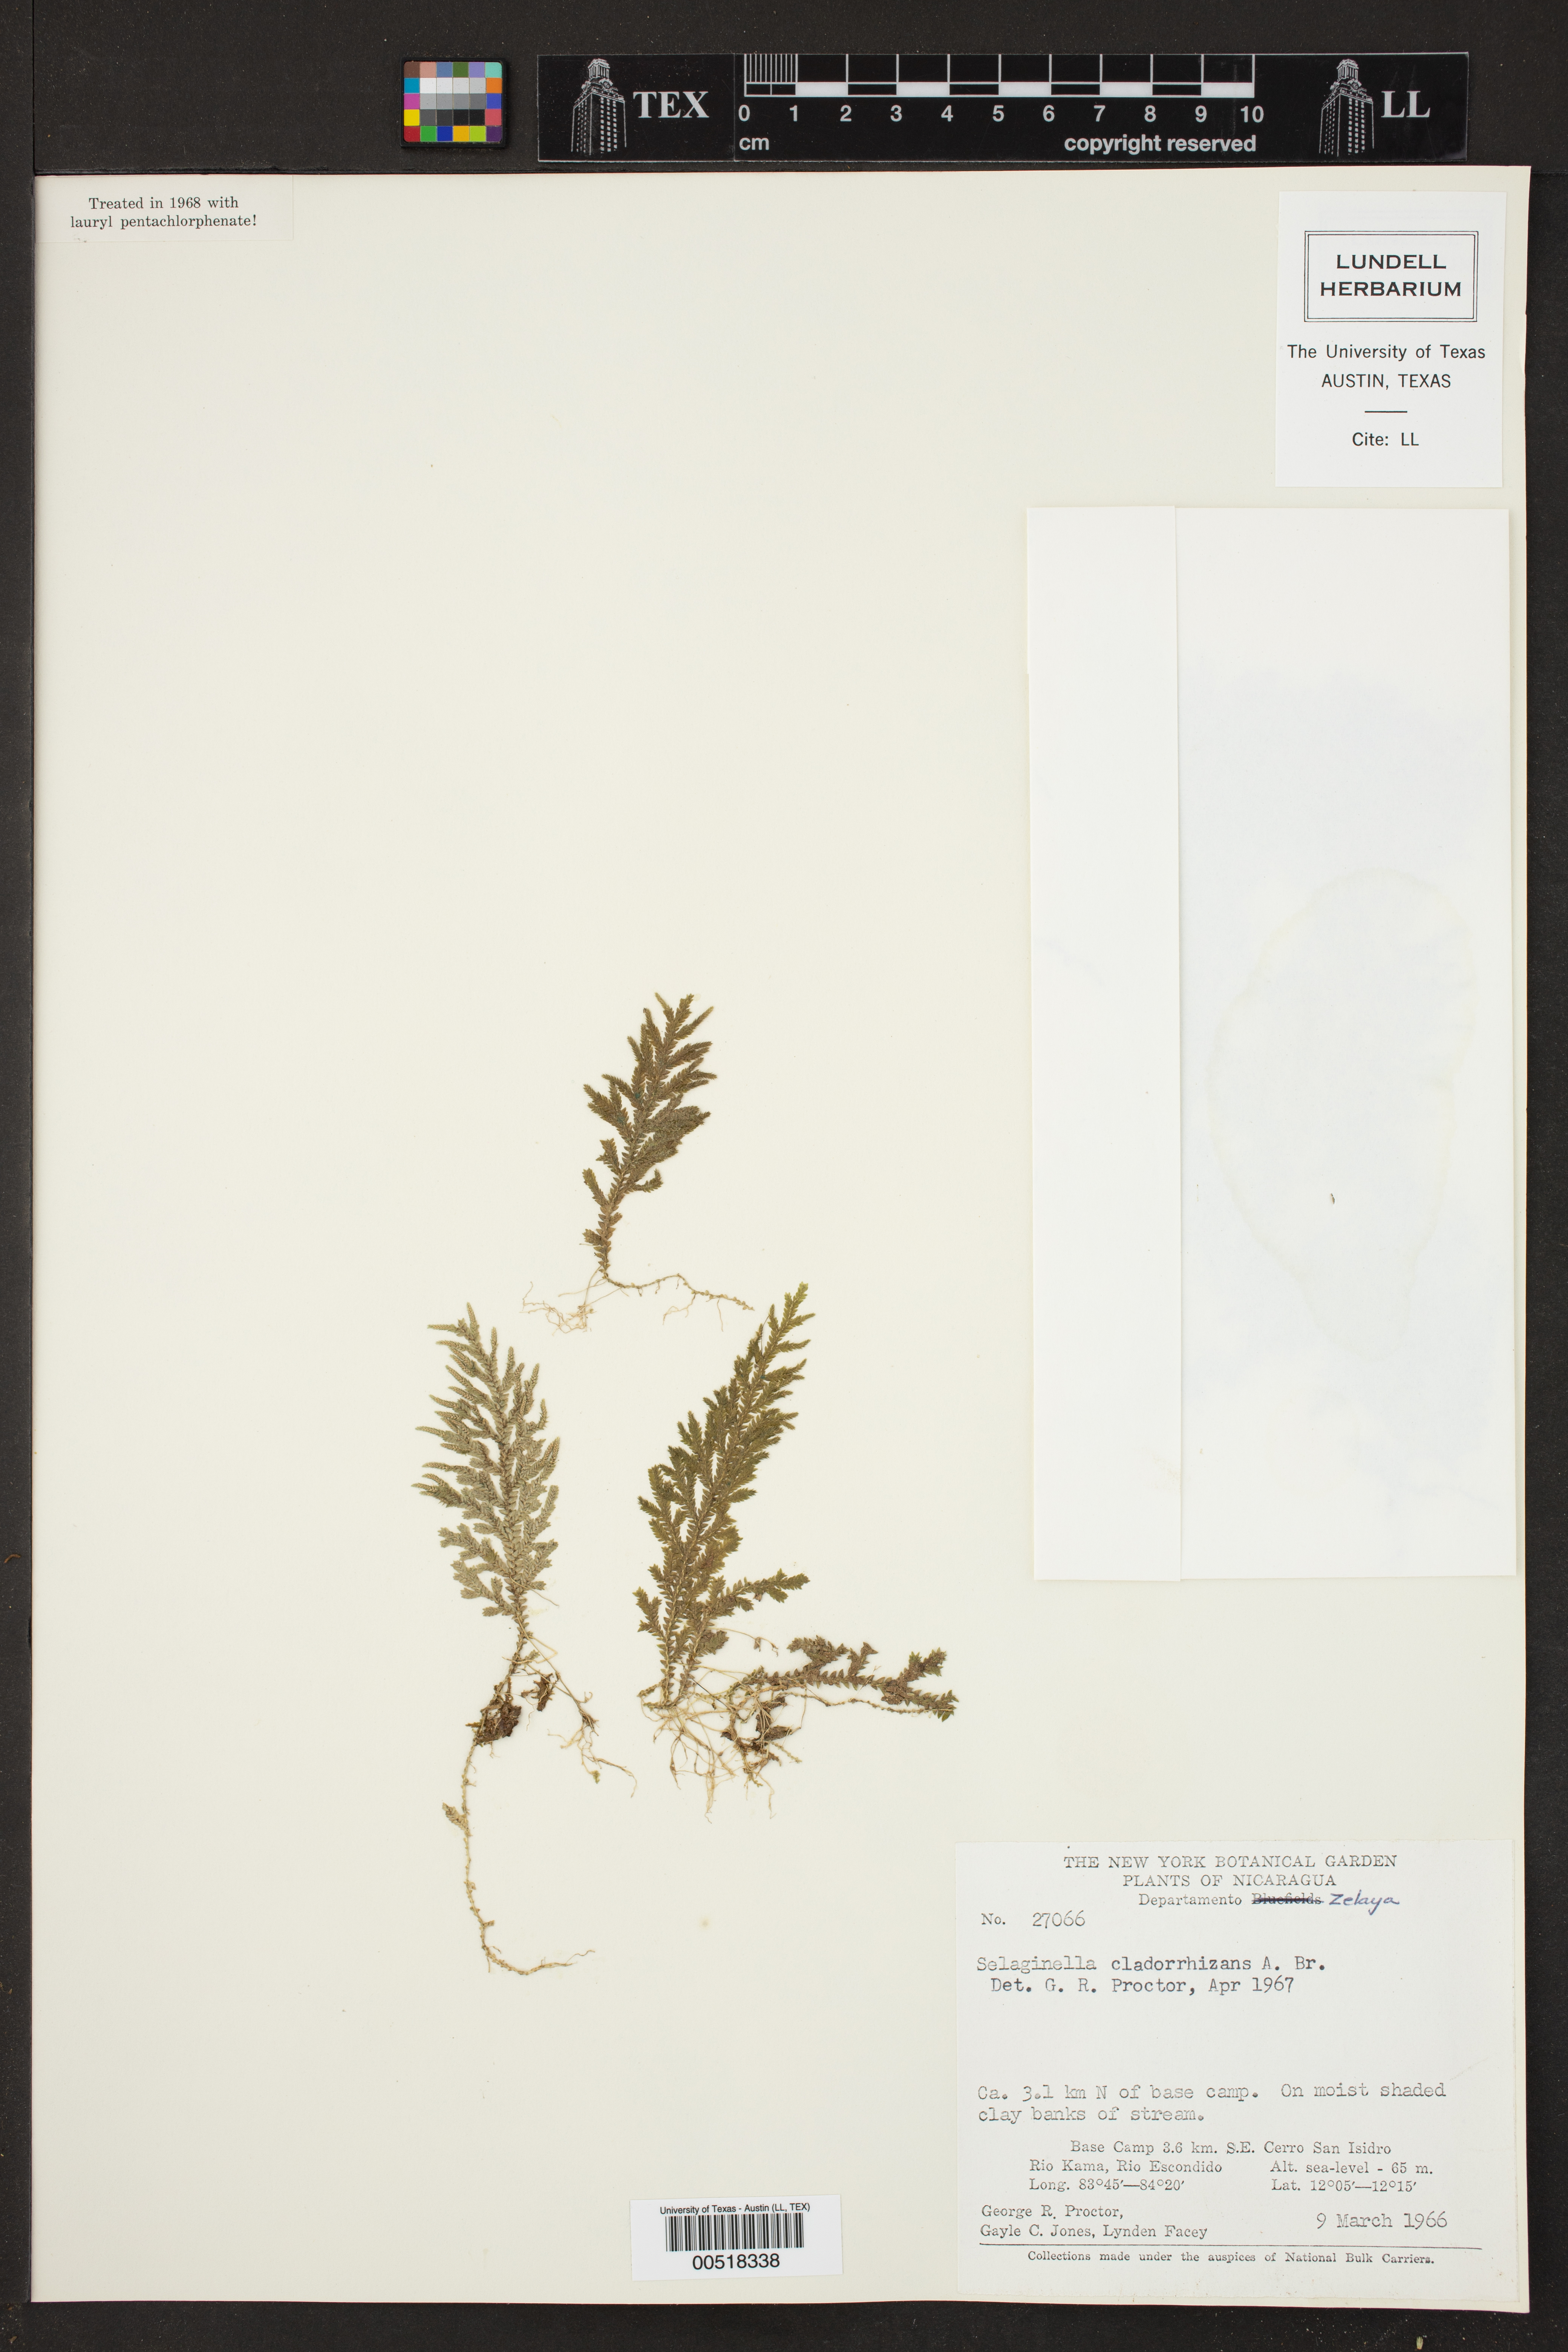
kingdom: Plantae
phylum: Tracheophyta
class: Lycopodiopsida
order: Selaginellales
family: Selaginellaceae
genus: Selaginella
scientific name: Selaginella tenella
